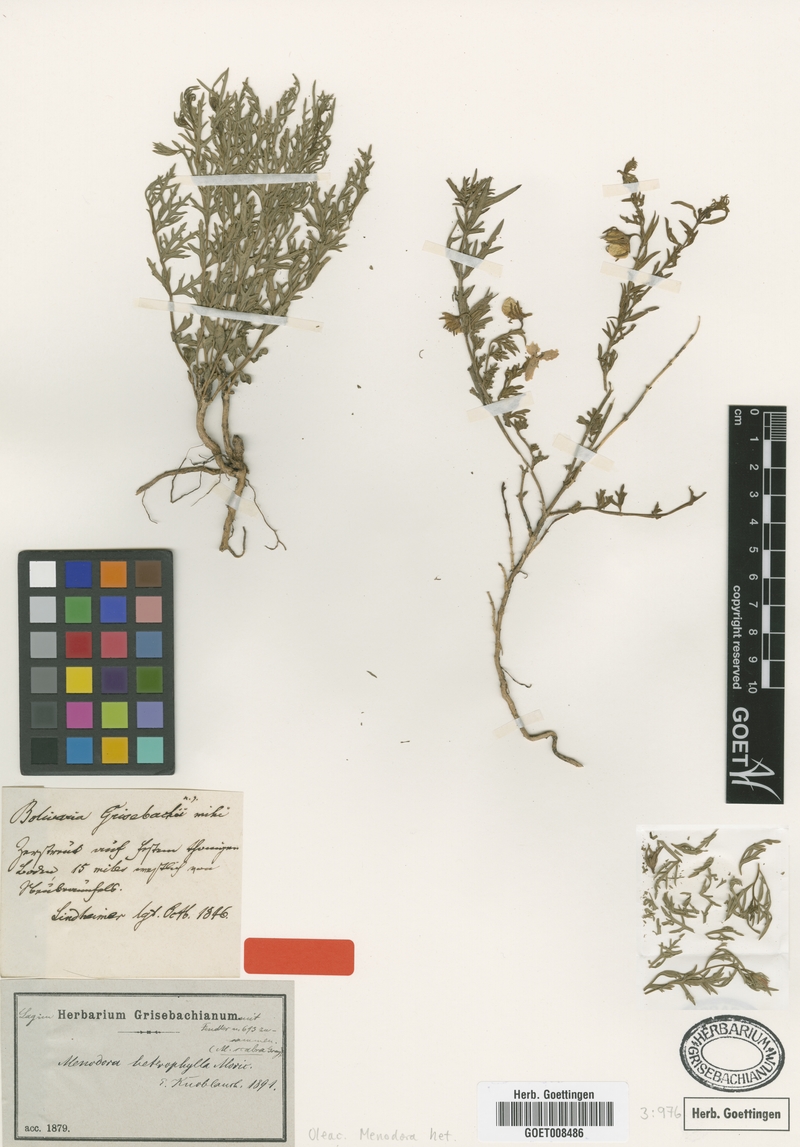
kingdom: Plantae
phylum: Tracheophyta
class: Magnoliopsida
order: Lamiales
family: Oleaceae
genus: Menodora
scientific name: Menodora heterophylla
